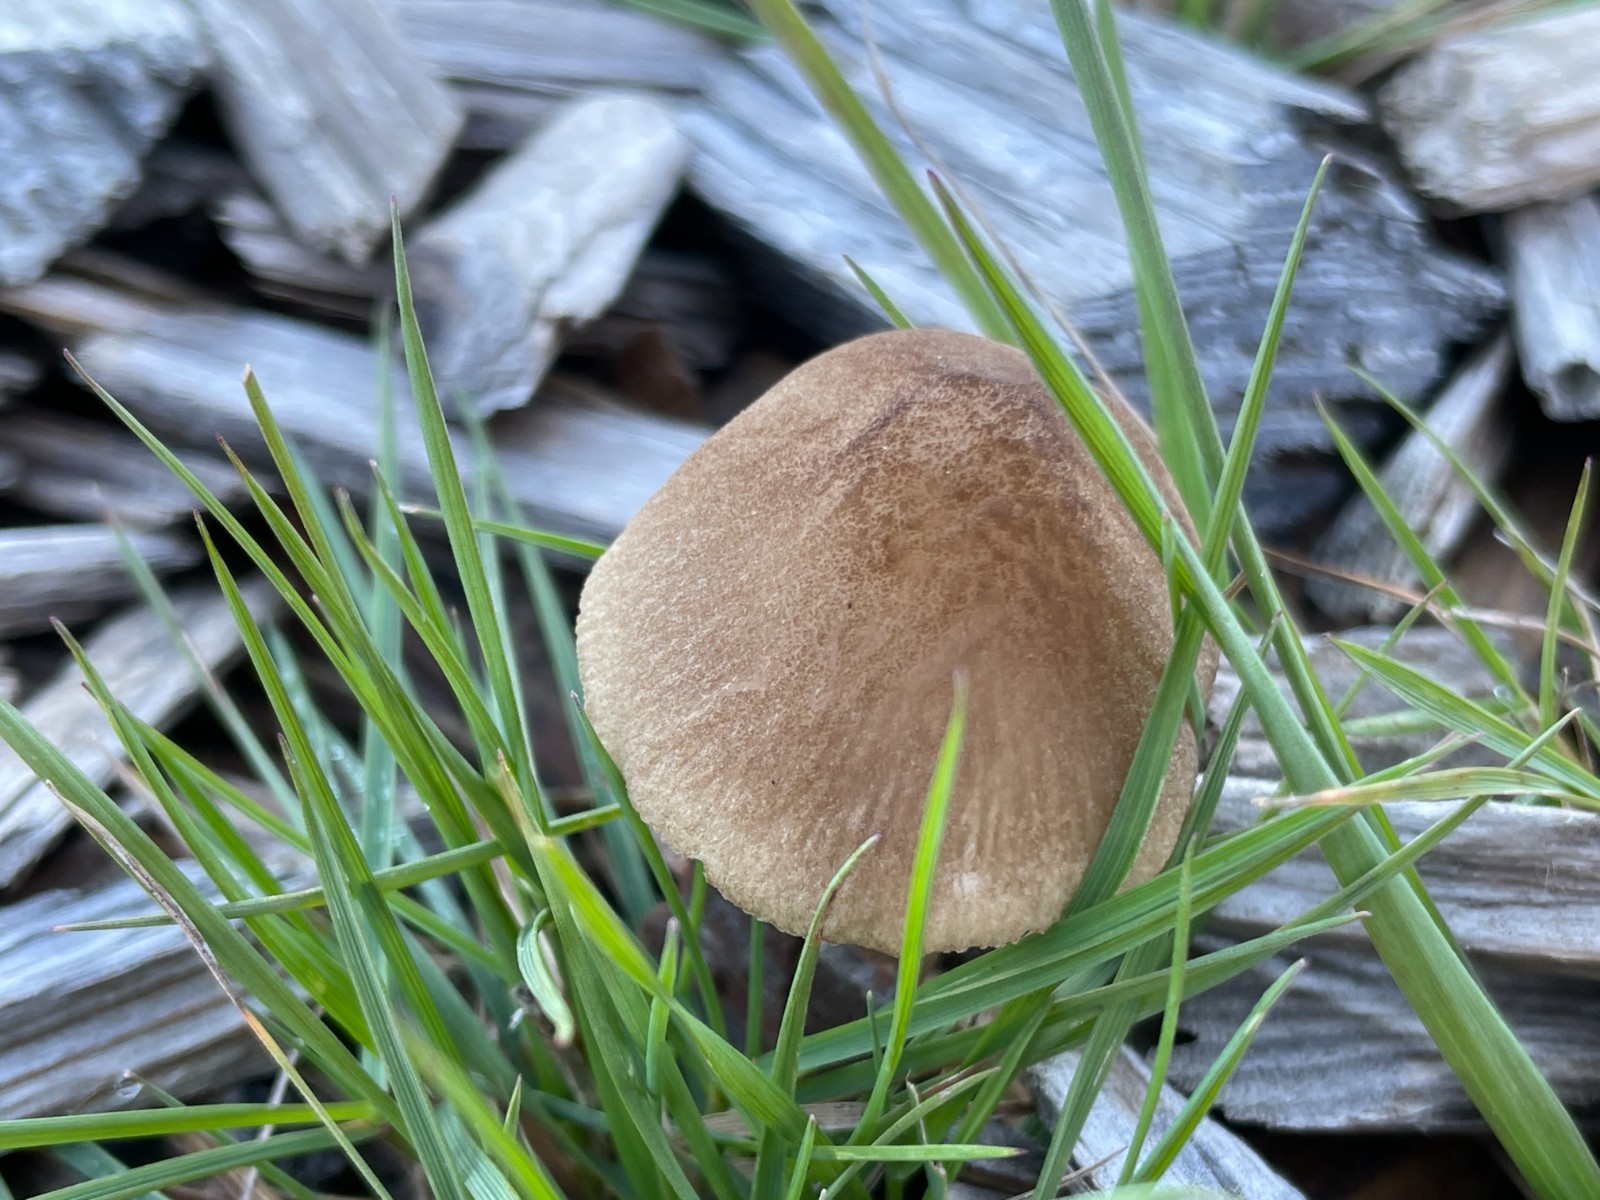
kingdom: Fungi
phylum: Basidiomycota
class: Agaricomycetes
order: Agaricales
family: Pluteaceae
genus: Pluteus
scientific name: Pluteus
